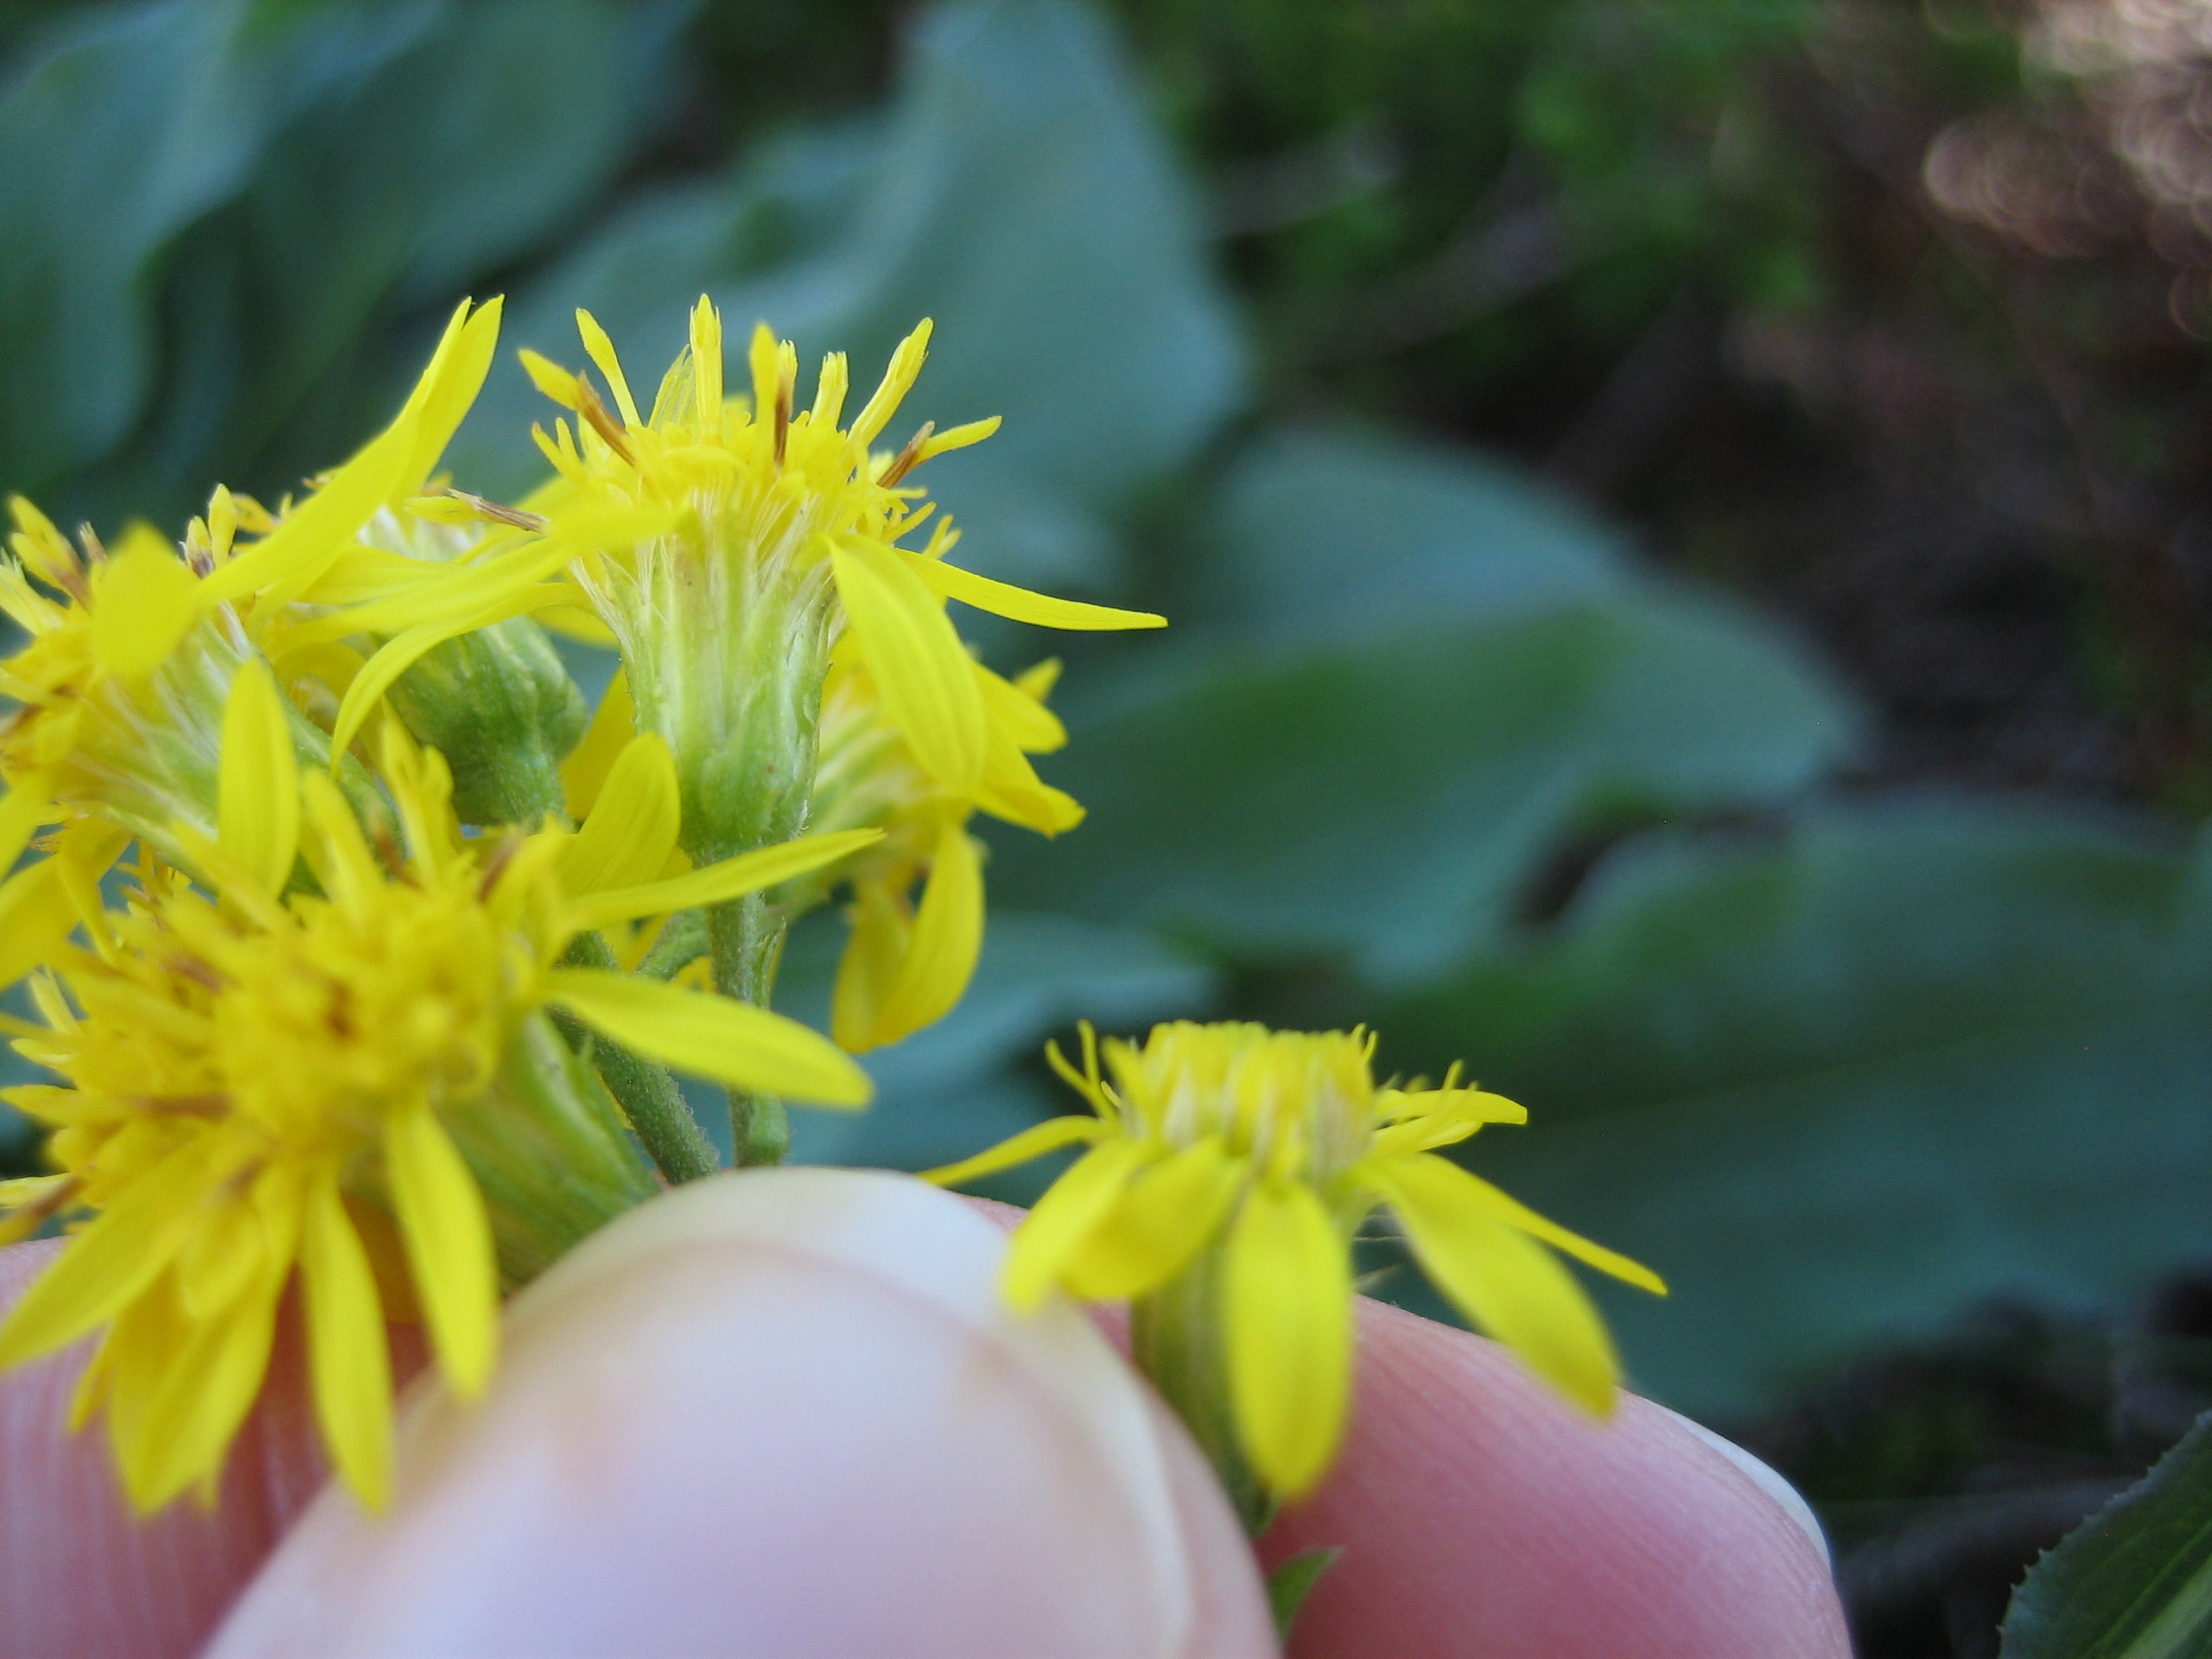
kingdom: Plantae
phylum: Tracheophyta
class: Magnoliopsida
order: Asterales
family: Asteraceae
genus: Solidago
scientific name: Solidago virgaurea
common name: Almindelig gyldenris
